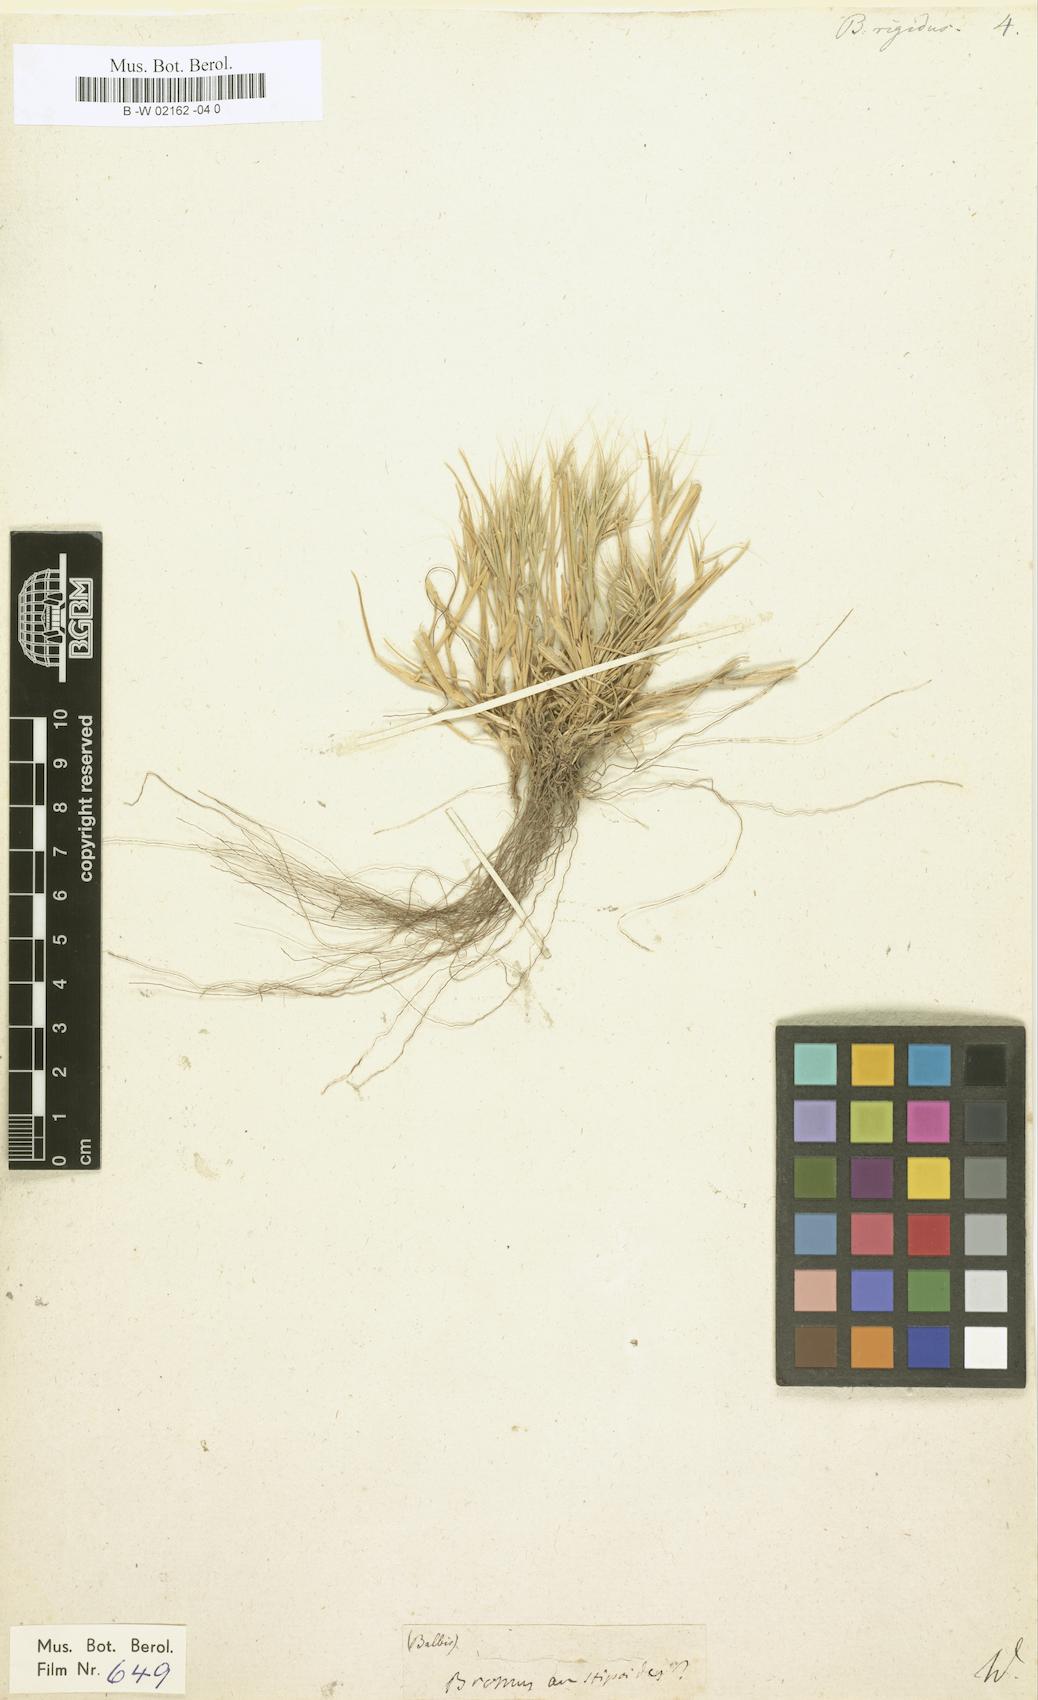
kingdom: Plantae
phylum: Tracheophyta
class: Liliopsida
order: Poales
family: Poaceae
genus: Bromus
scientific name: Bromus rigidus
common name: Ripgut brome
